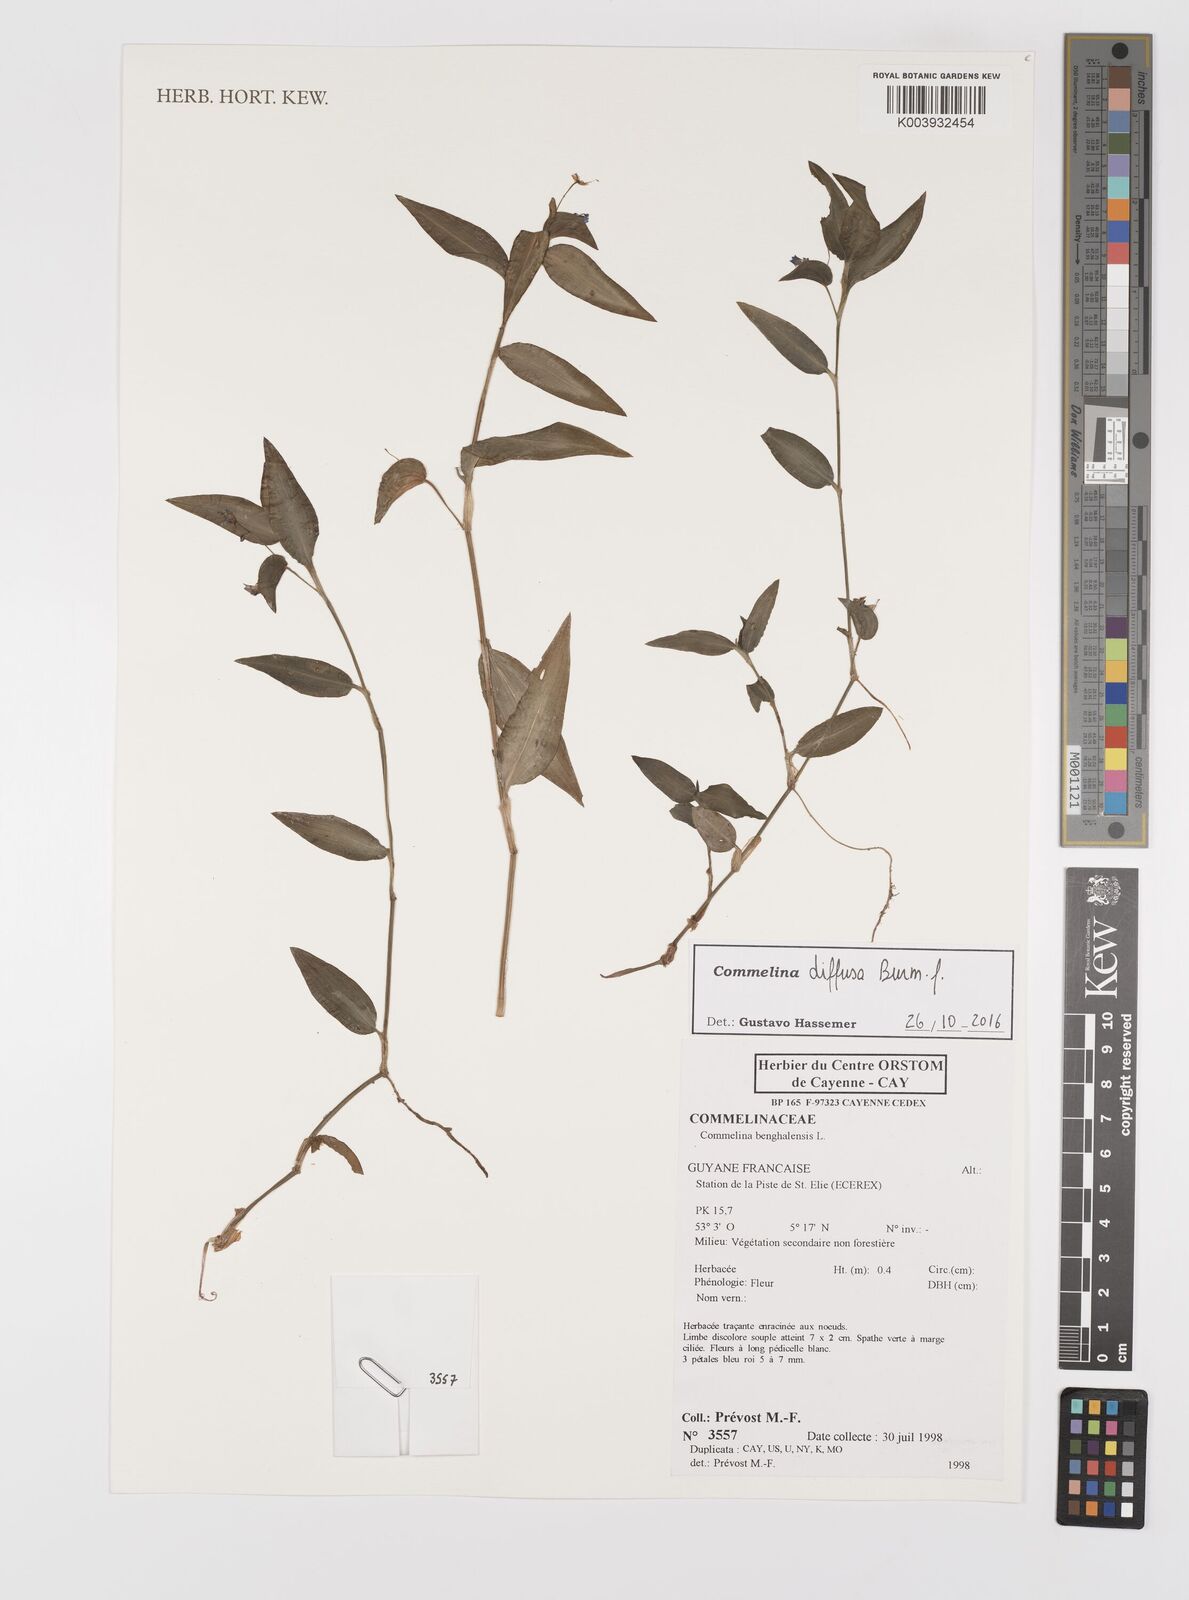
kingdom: Plantae
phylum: Tracheophyta
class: Liliopsida
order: Commelinales
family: Commelinaceae
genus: Commelina
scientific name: Commelina diffusa
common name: Climbing dayflower
